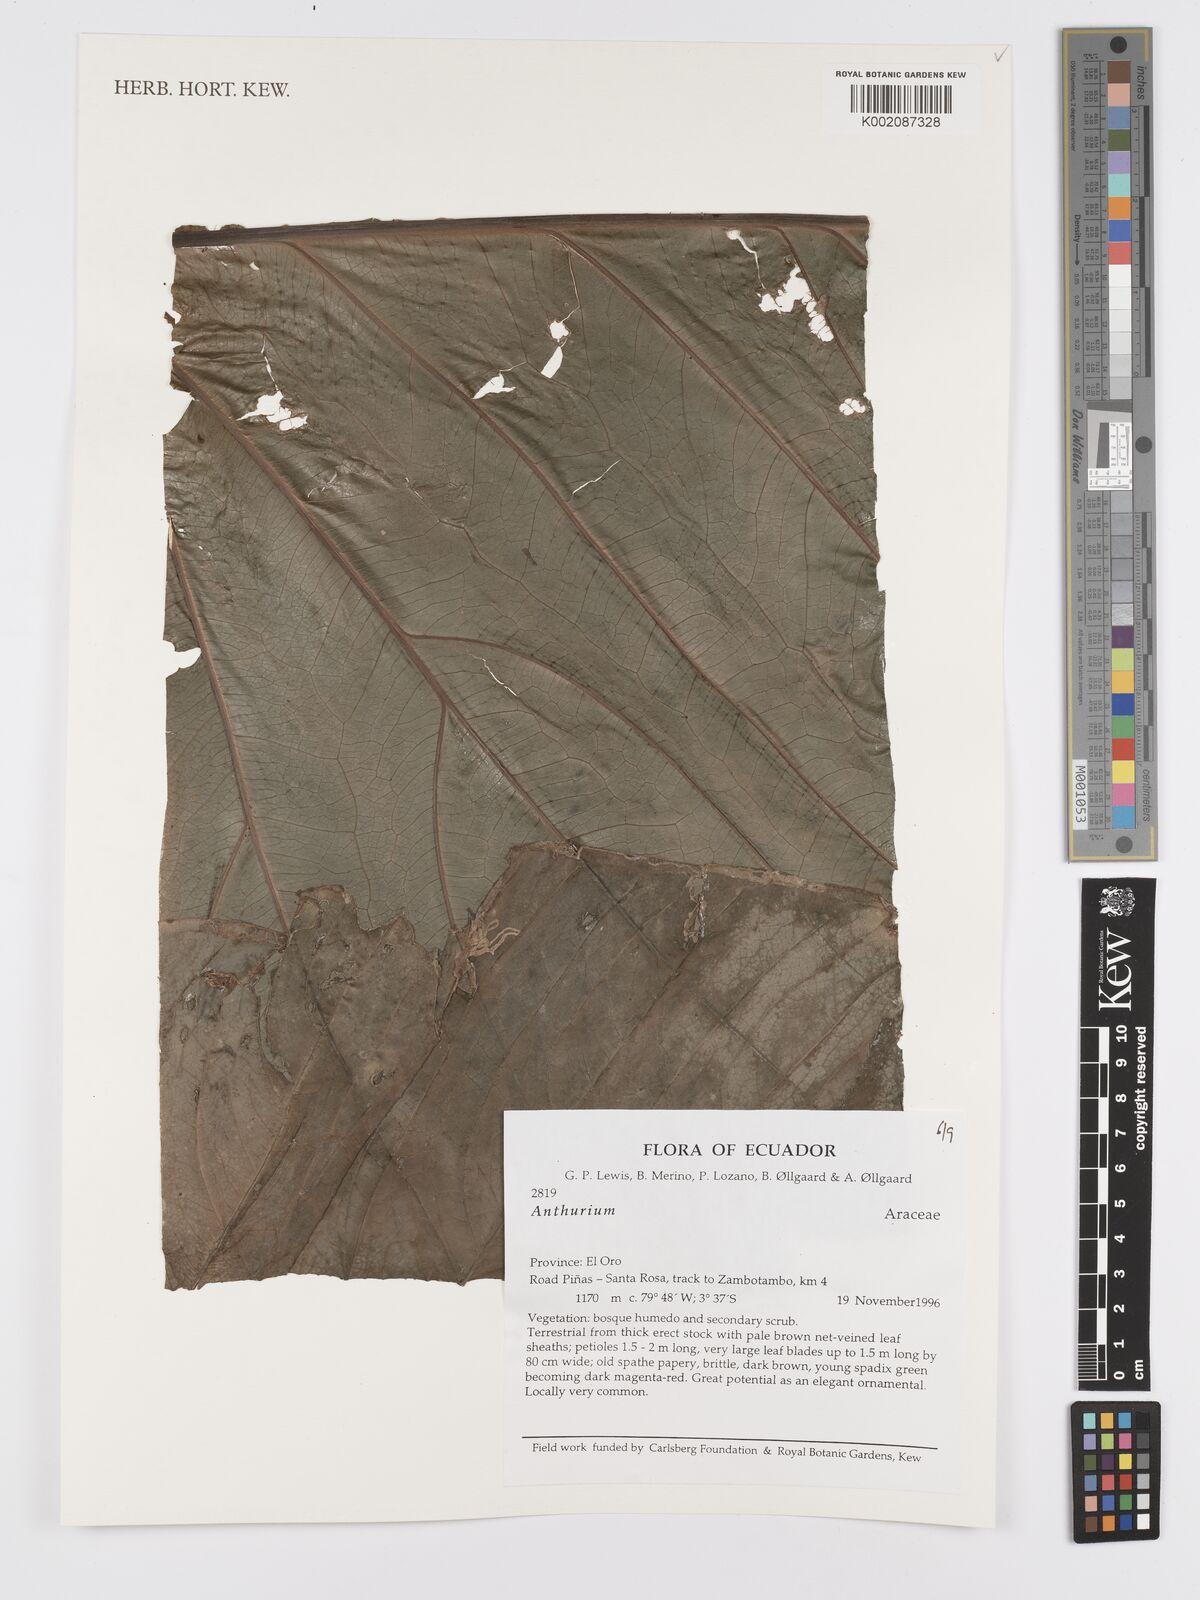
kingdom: Plantae
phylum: Tracheophyta
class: Liliopsida
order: Alismatales
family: Araceae
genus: Anthurium
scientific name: Anthurium
